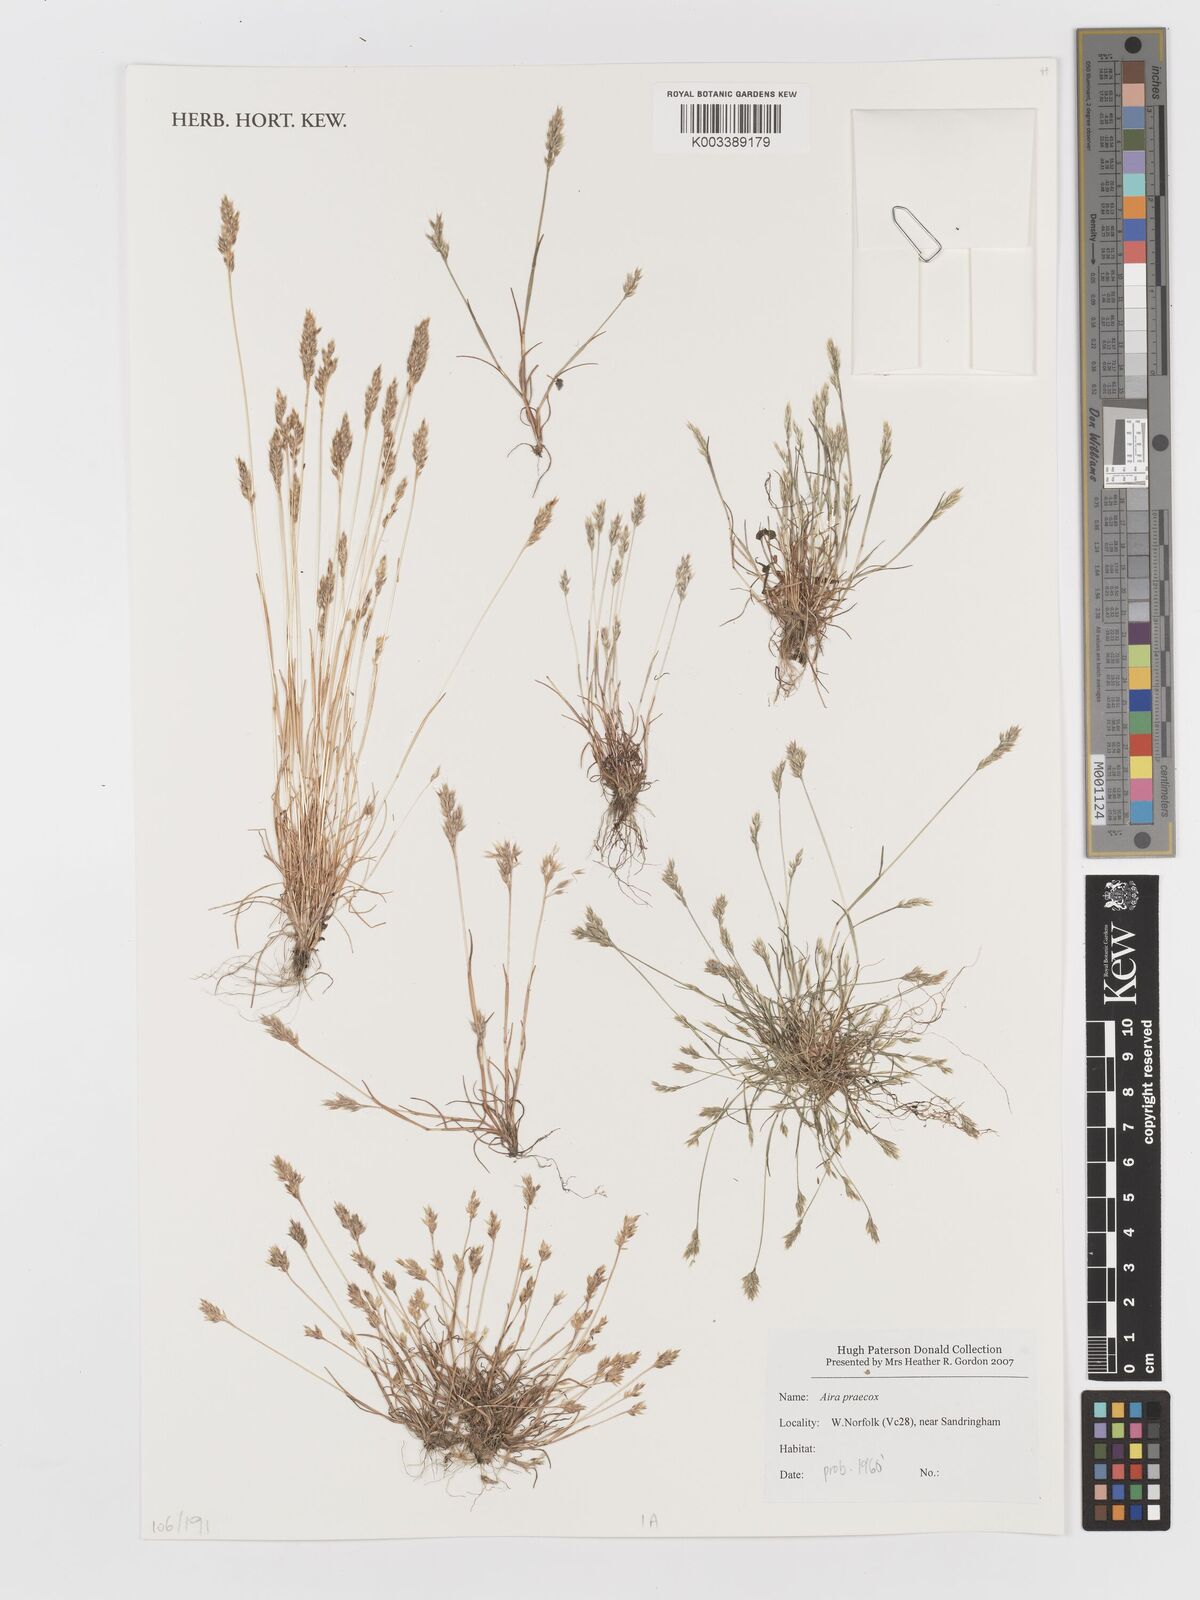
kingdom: Plantae
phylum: Tracheophyta
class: Liliopsida
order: Poales
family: Poaceae
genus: Aira
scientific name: Aira praecox
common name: Early hair-grass
